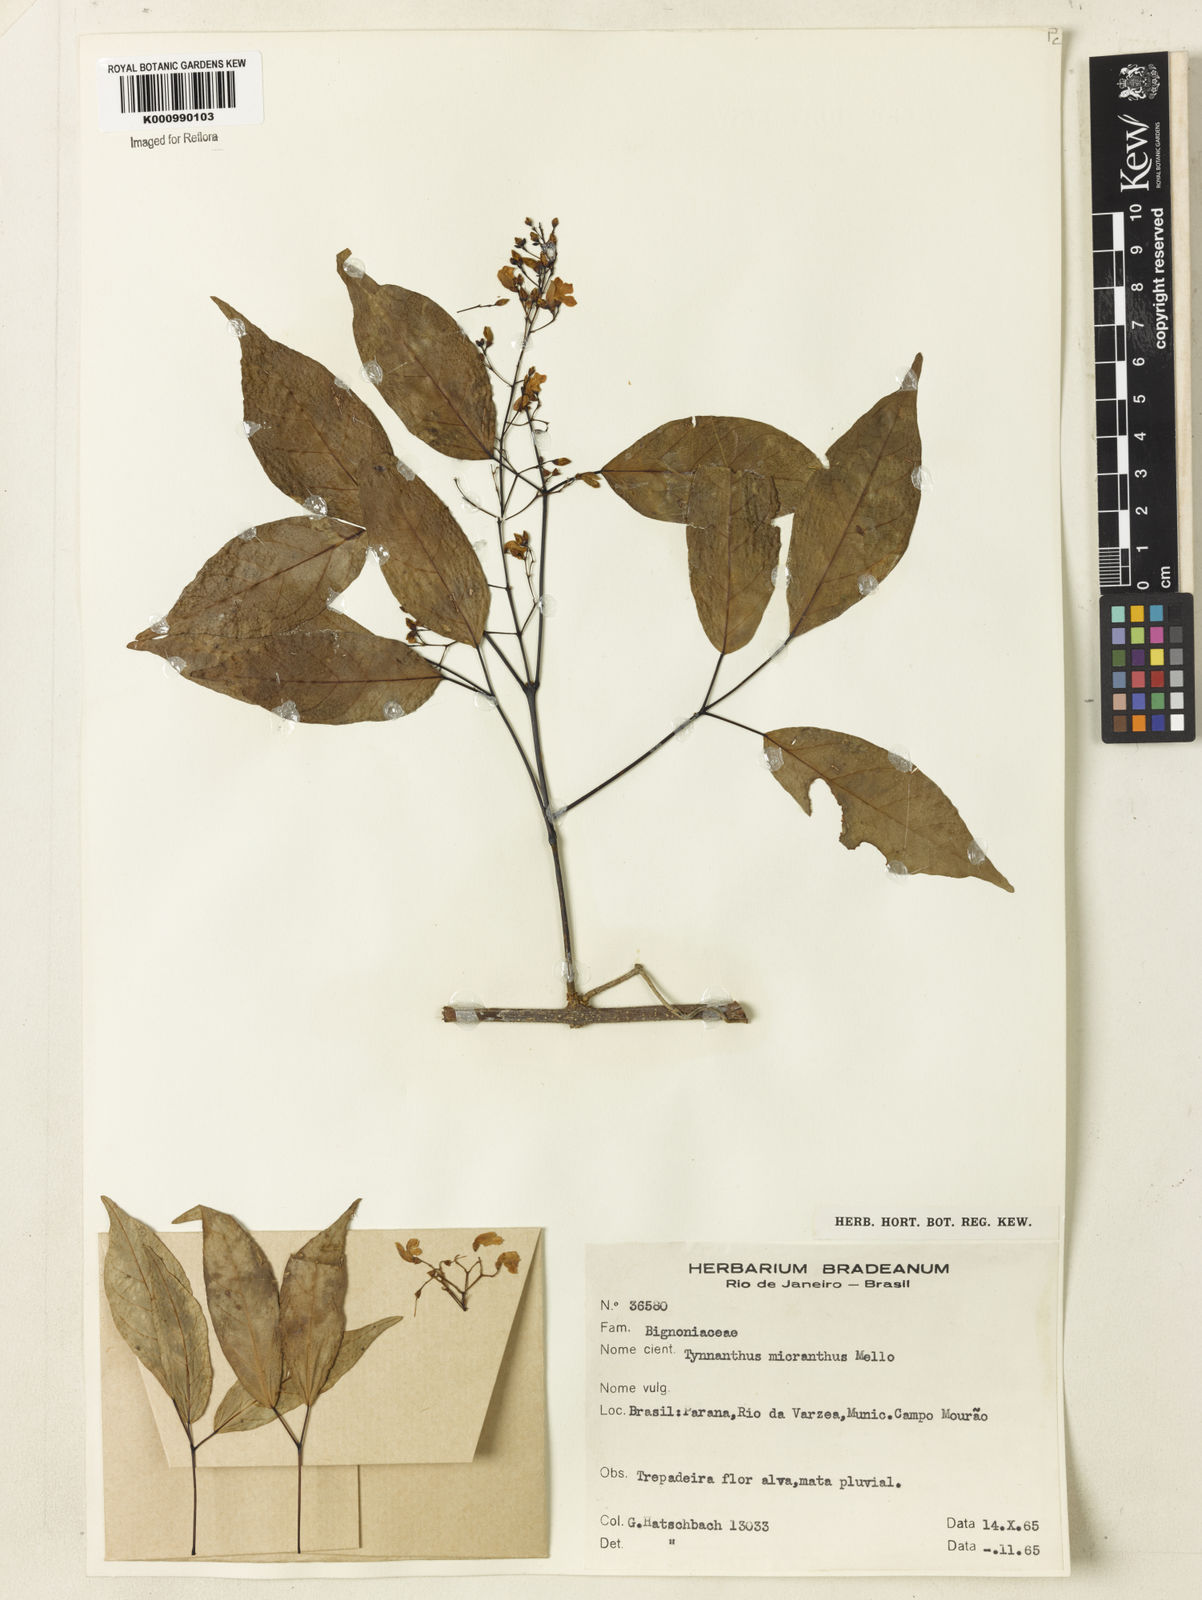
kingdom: Plantae
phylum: Tracheophyta
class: Magnoliopsida
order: Lamiales
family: Bignoniaceae
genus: Tynanthus
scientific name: Tynanthus
